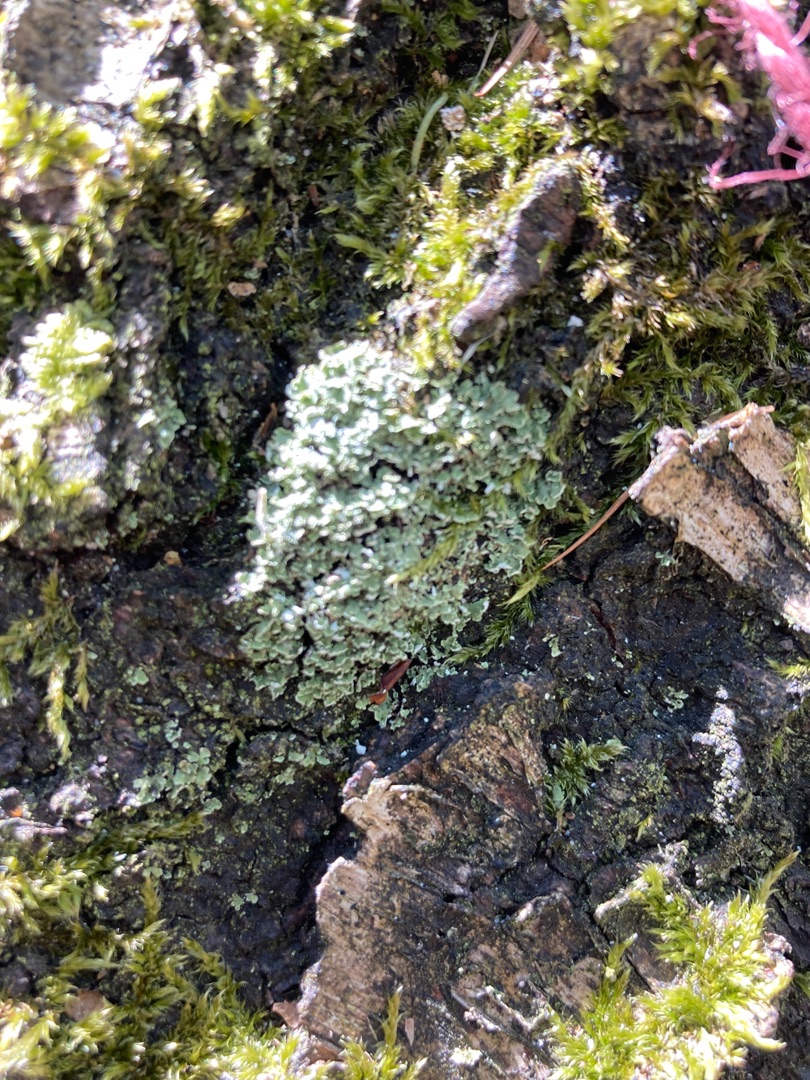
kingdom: Fungi
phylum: Ascomycota
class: Lecanoromycetes
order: Lecanorales
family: Cladoniaceae
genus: Cladonia
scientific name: Cladonia
